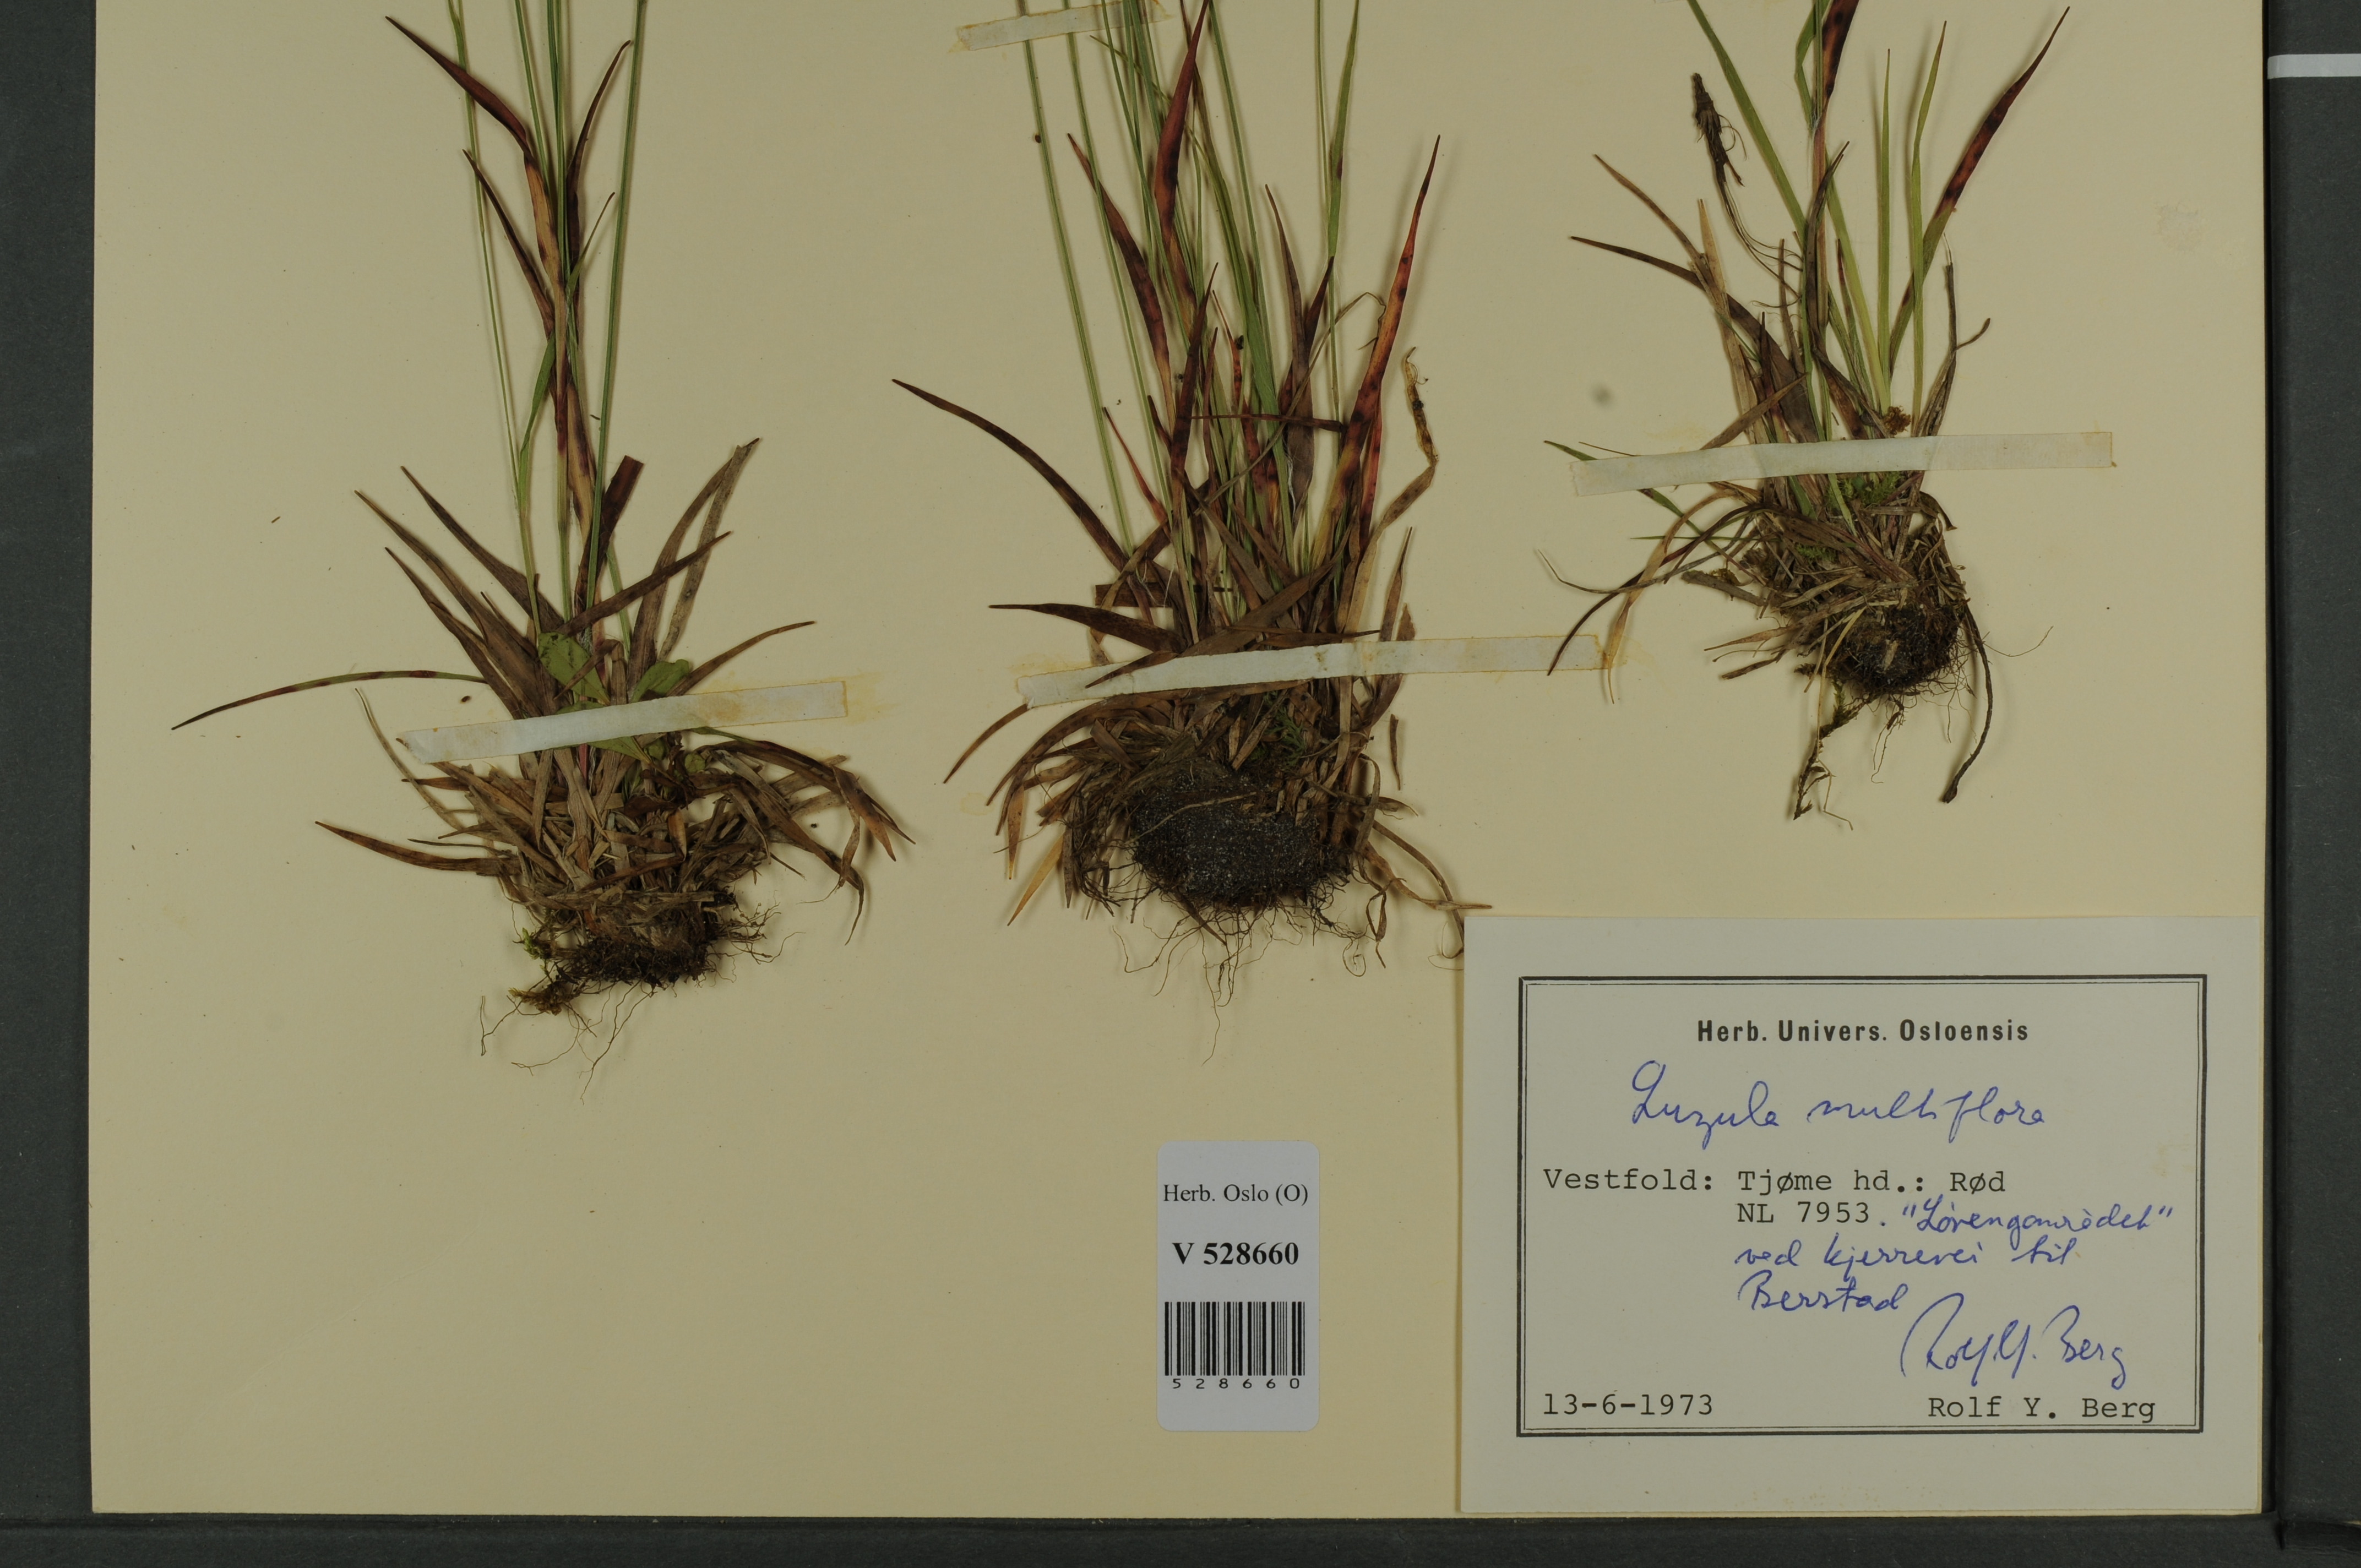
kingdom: Plantae
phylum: Tracheophyta
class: Liliopsida
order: Poales
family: Juncaceae
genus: Luzula
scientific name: Luzula multiflora
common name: Heath wood-rush
